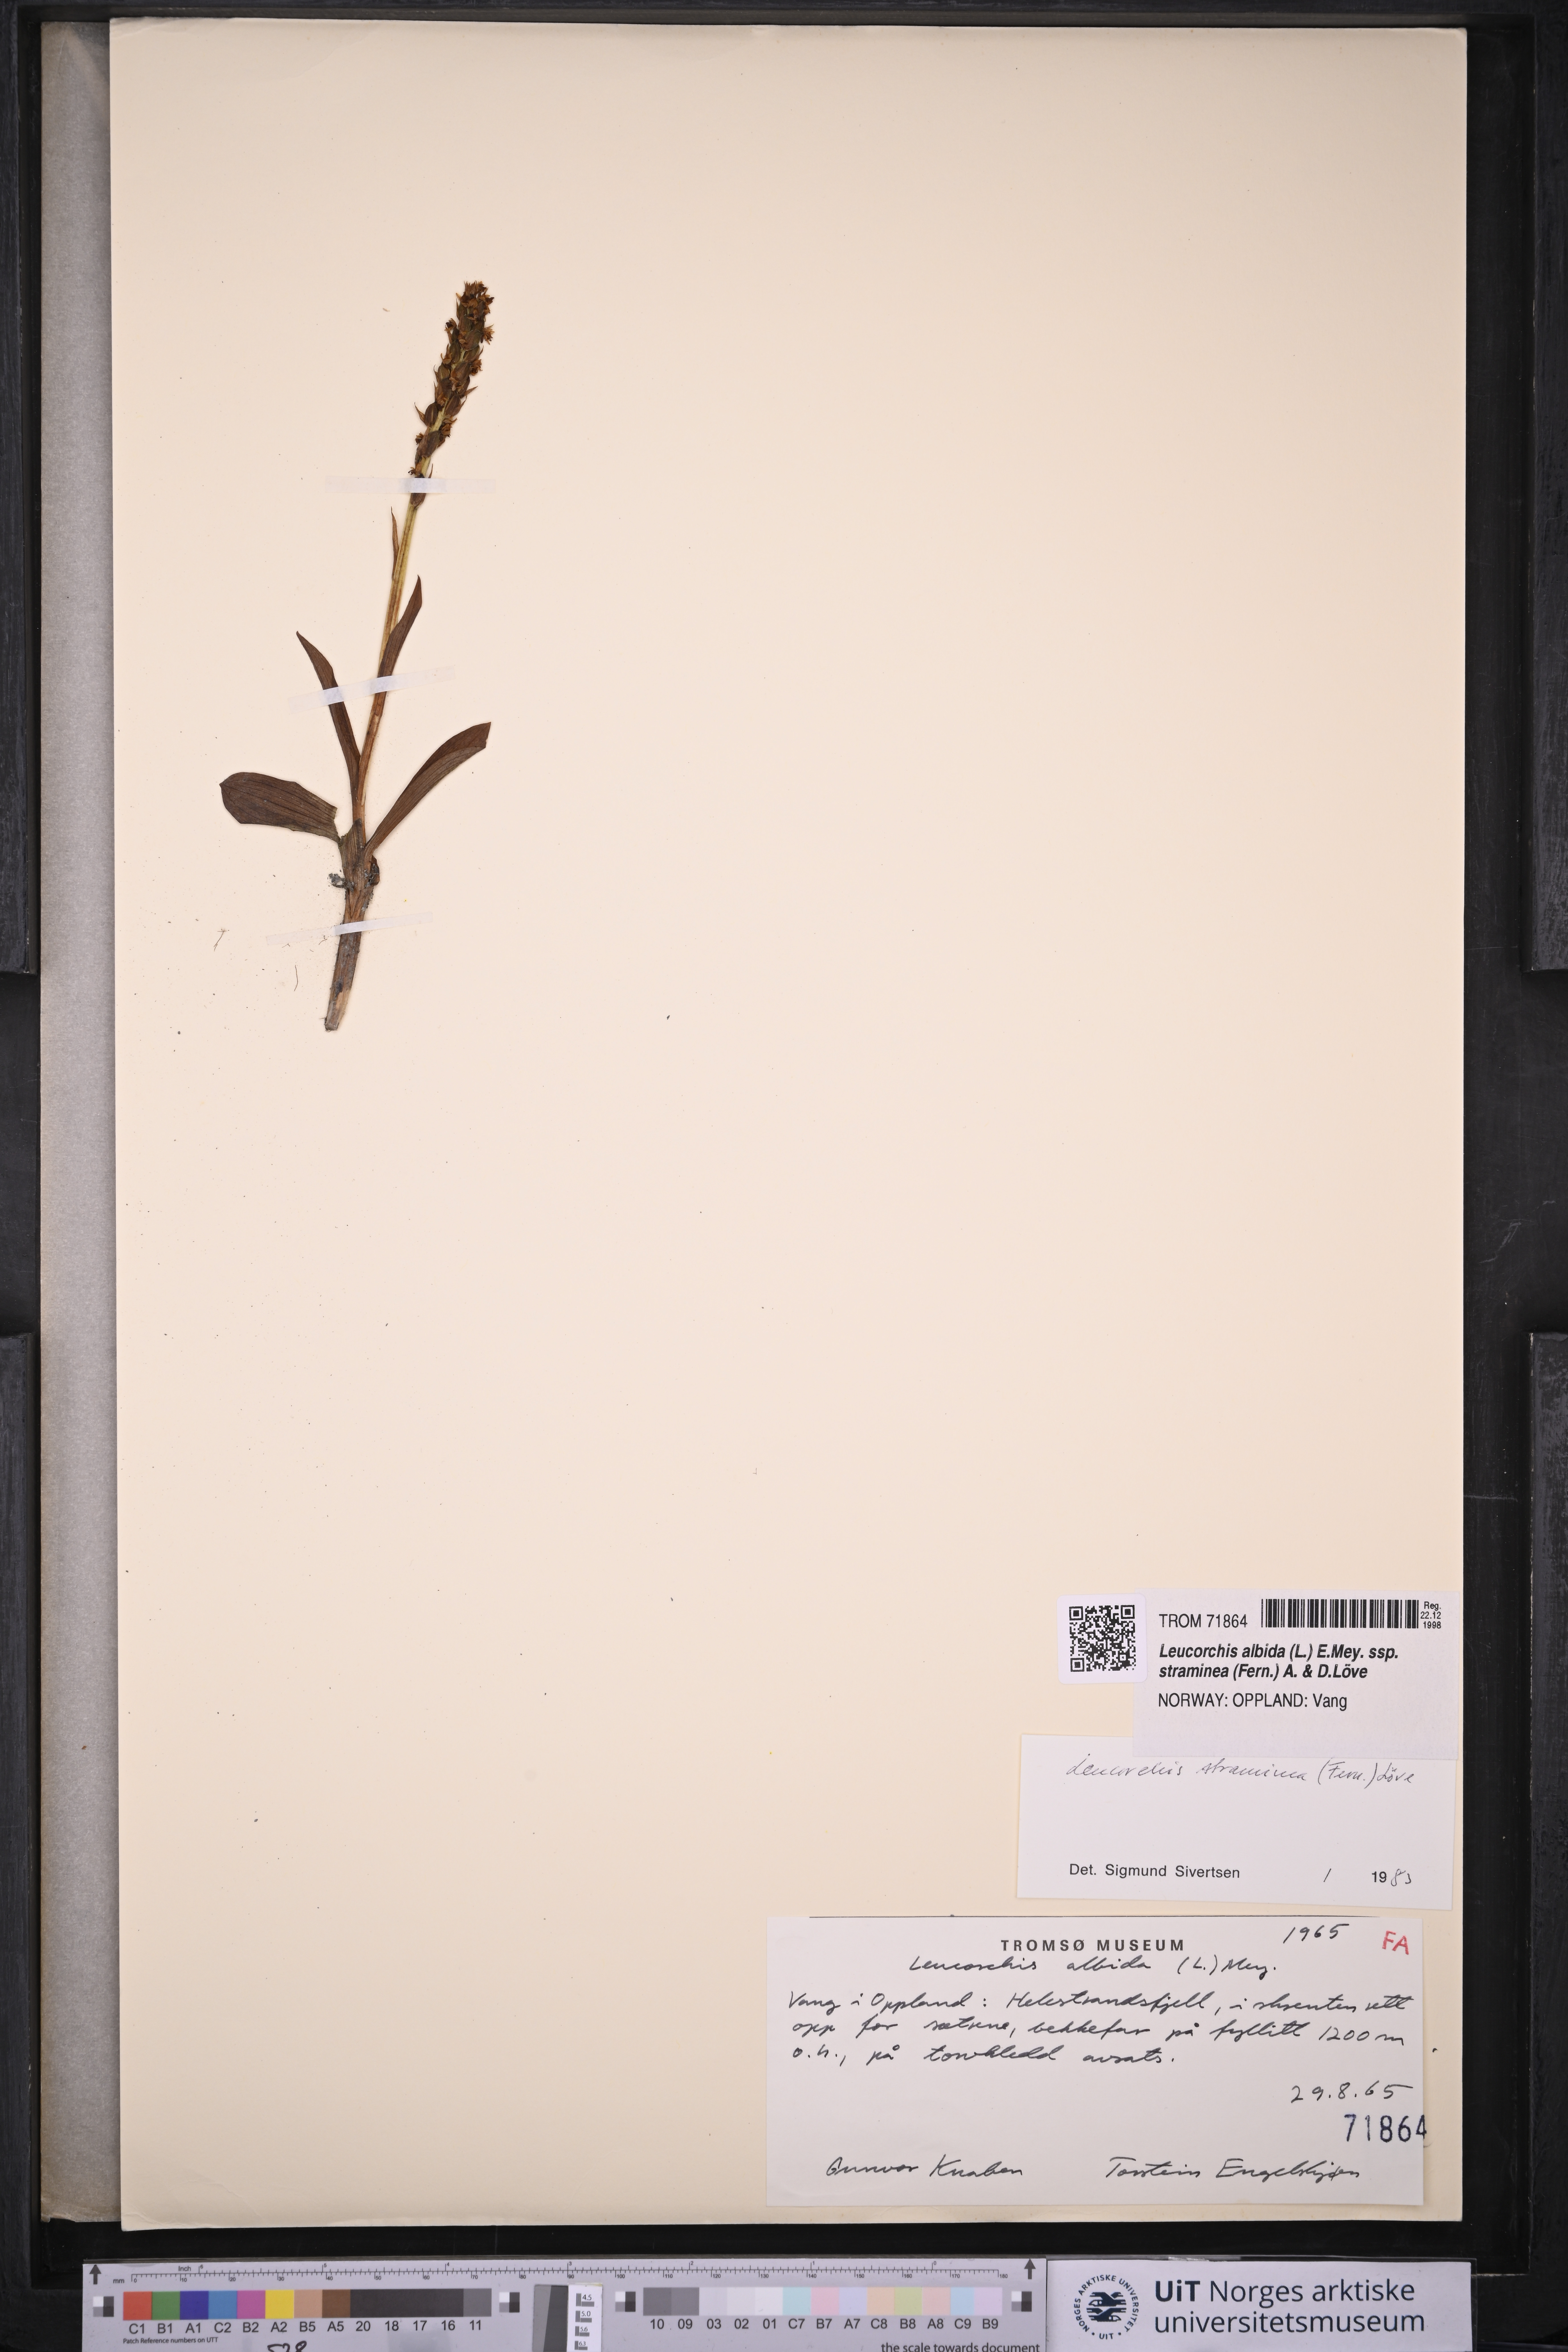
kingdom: Plantae
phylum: Tracheophyta
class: Liliopsida
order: Asparagales
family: Orchidaceae
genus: Pseudorchis
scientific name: Pseudorchis straminea
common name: Vanilla-scented bog orchid
